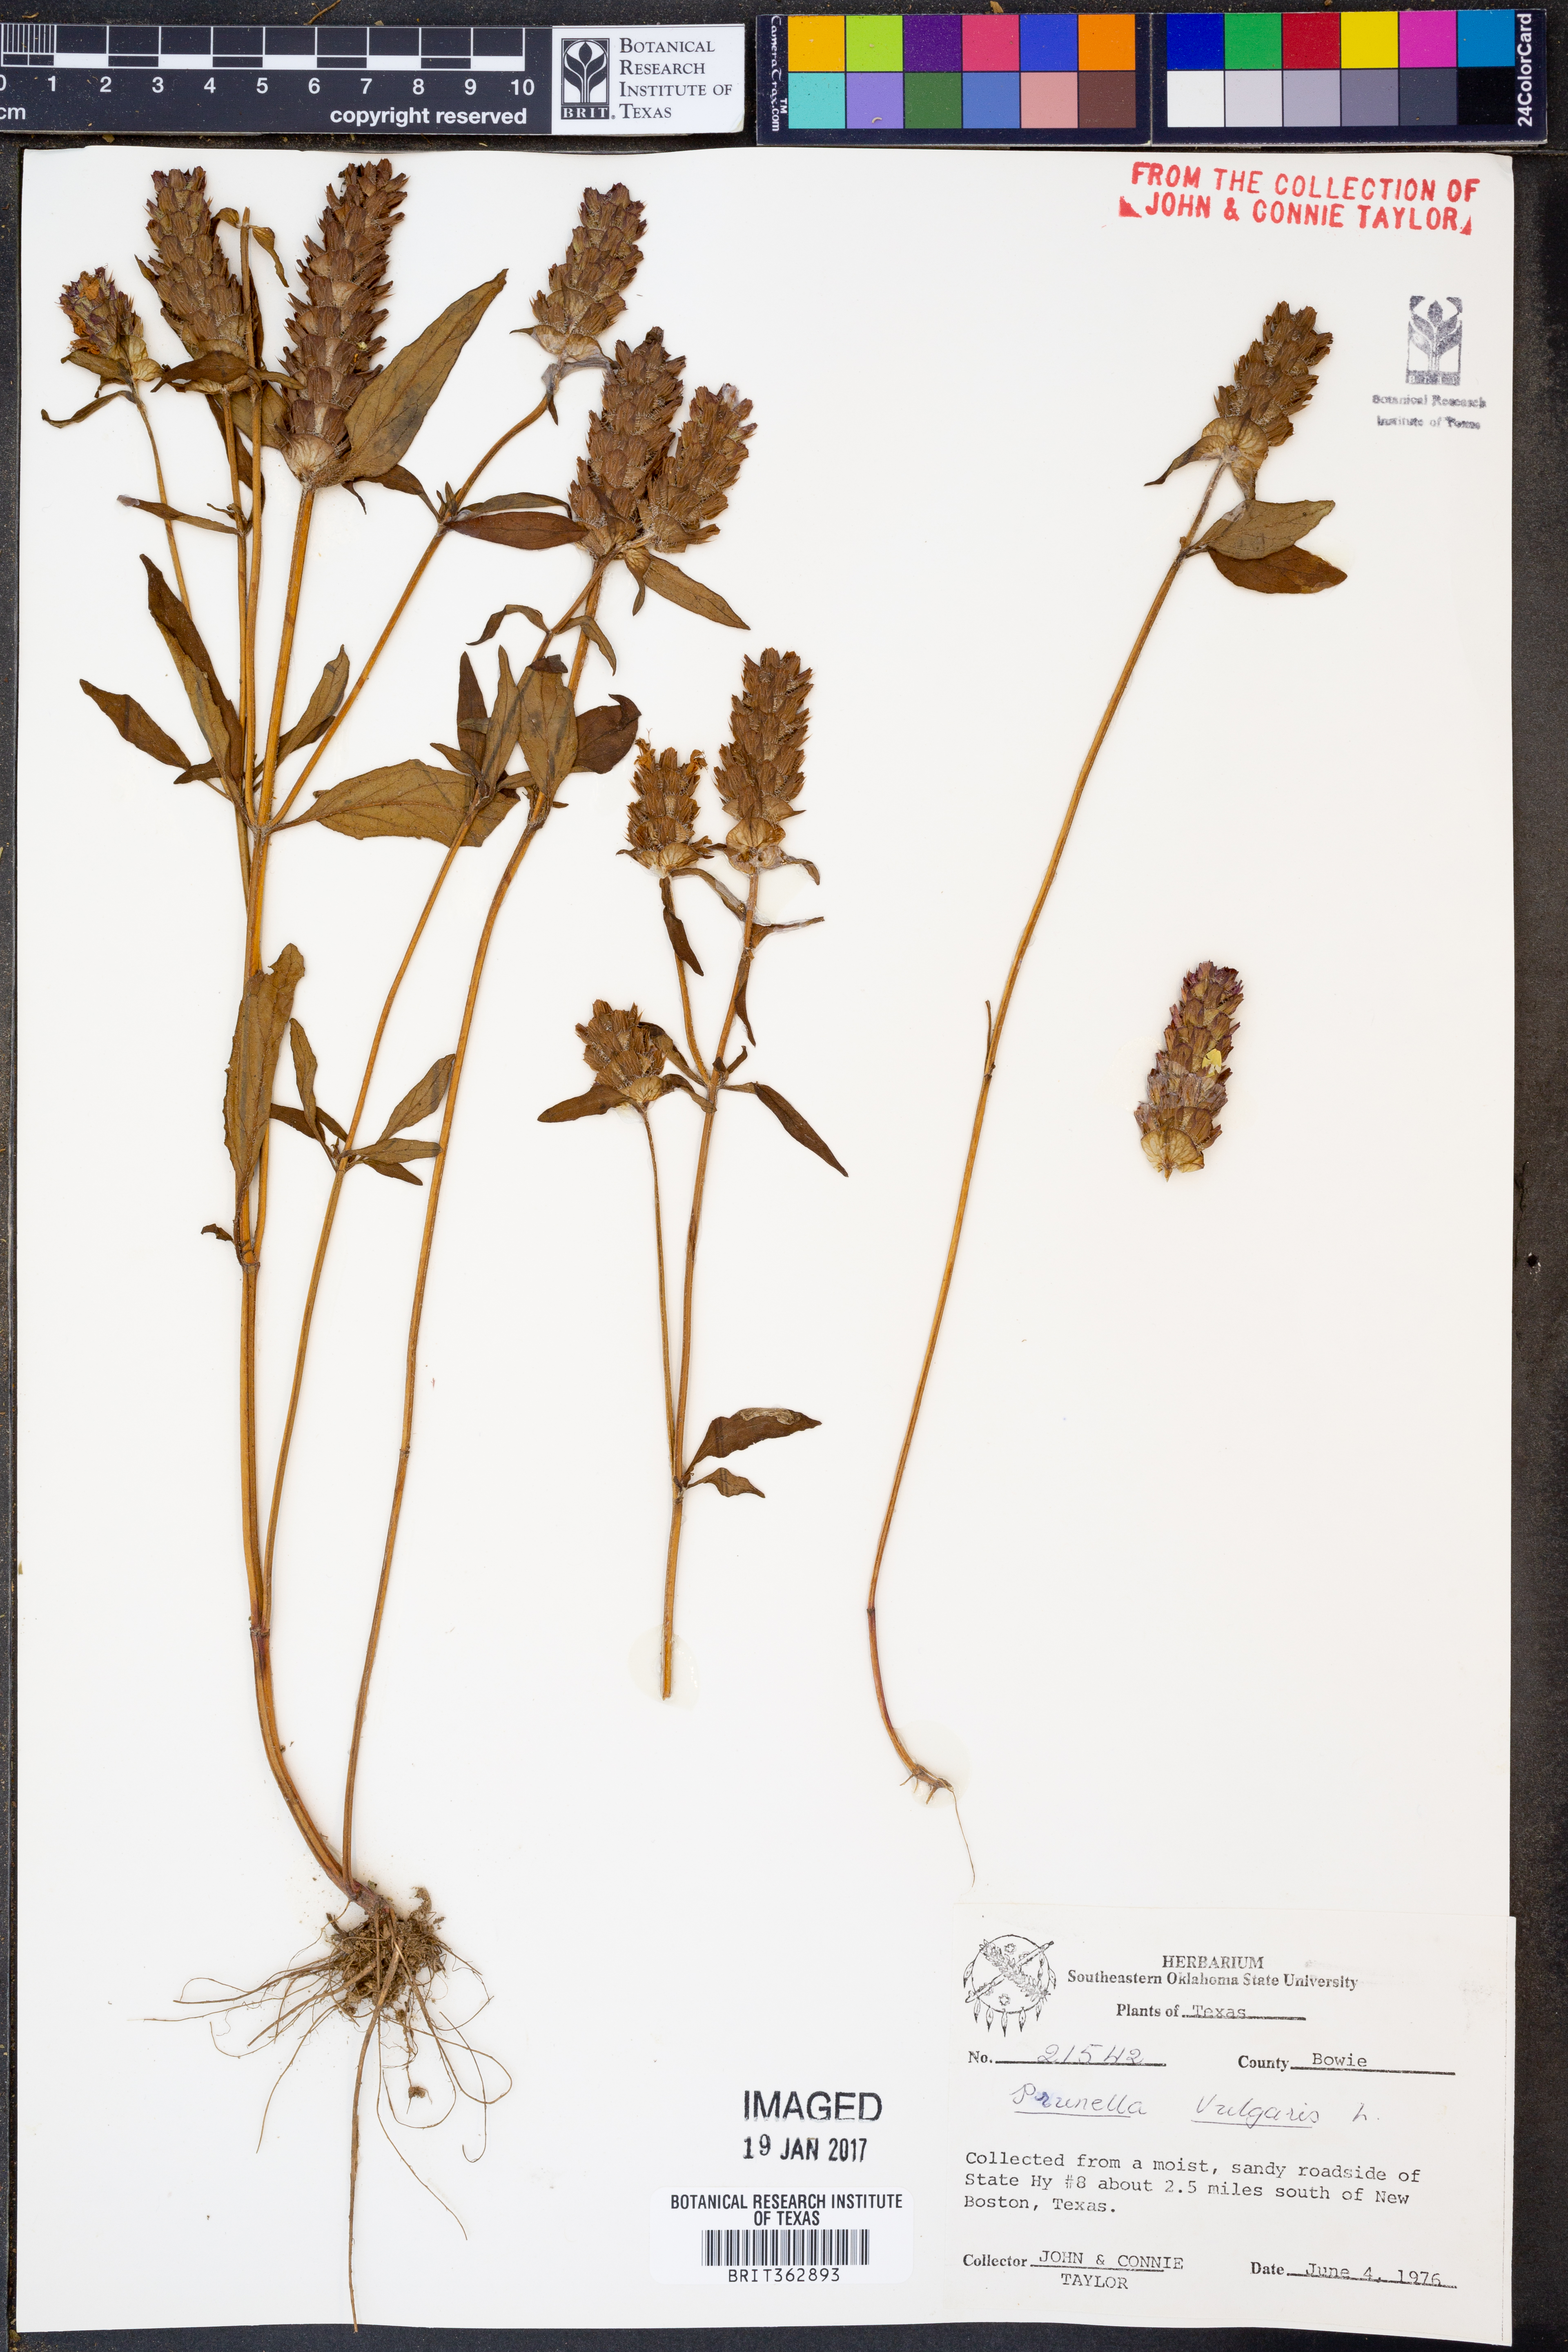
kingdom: Plantae
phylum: Tracheophyta
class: Magnoliopsida
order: Lamiales
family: Lamiaceae
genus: Prunella
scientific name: Prunella vulgaris
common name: Heal-all
